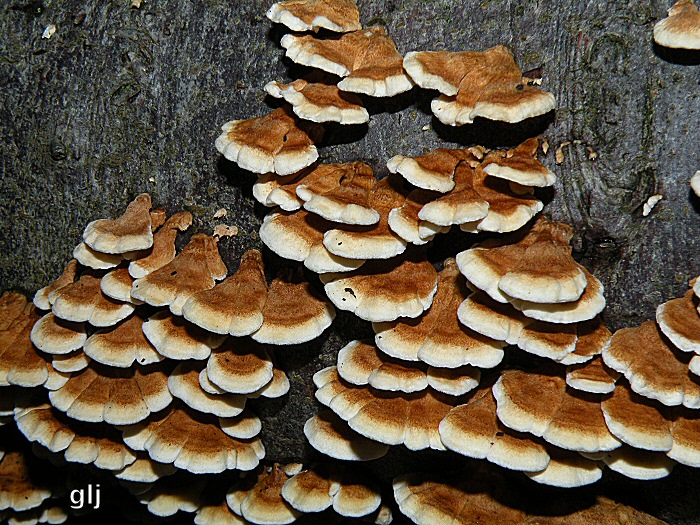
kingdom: Fungi
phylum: Basidiomycota
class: Agaricomycetes
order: Amylocorticiales
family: Amylocorticiaceae
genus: Plicaturopsis
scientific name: Plicaturopsis crispa
